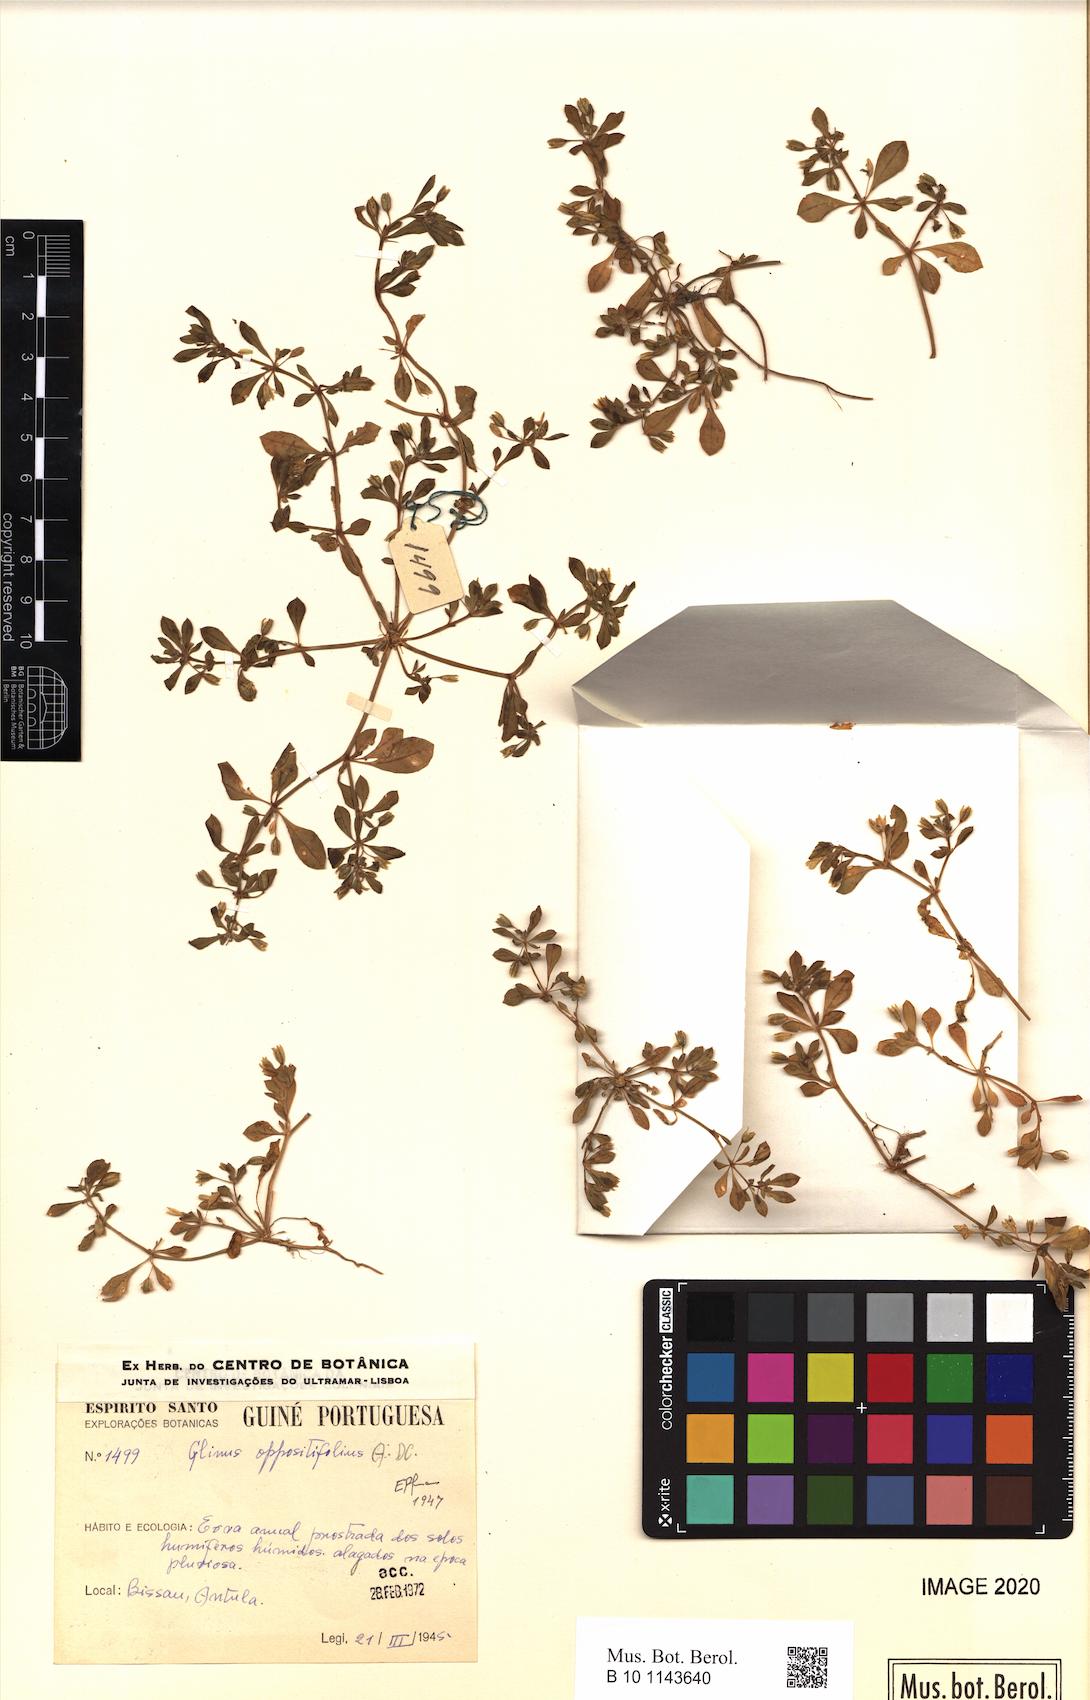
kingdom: Plantae
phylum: Tracheophyta
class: Magnoliopsida
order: Caryophyllales
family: Molluginaceae
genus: Glinus
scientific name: Glinus oppositifolius
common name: Slender carpetweed
